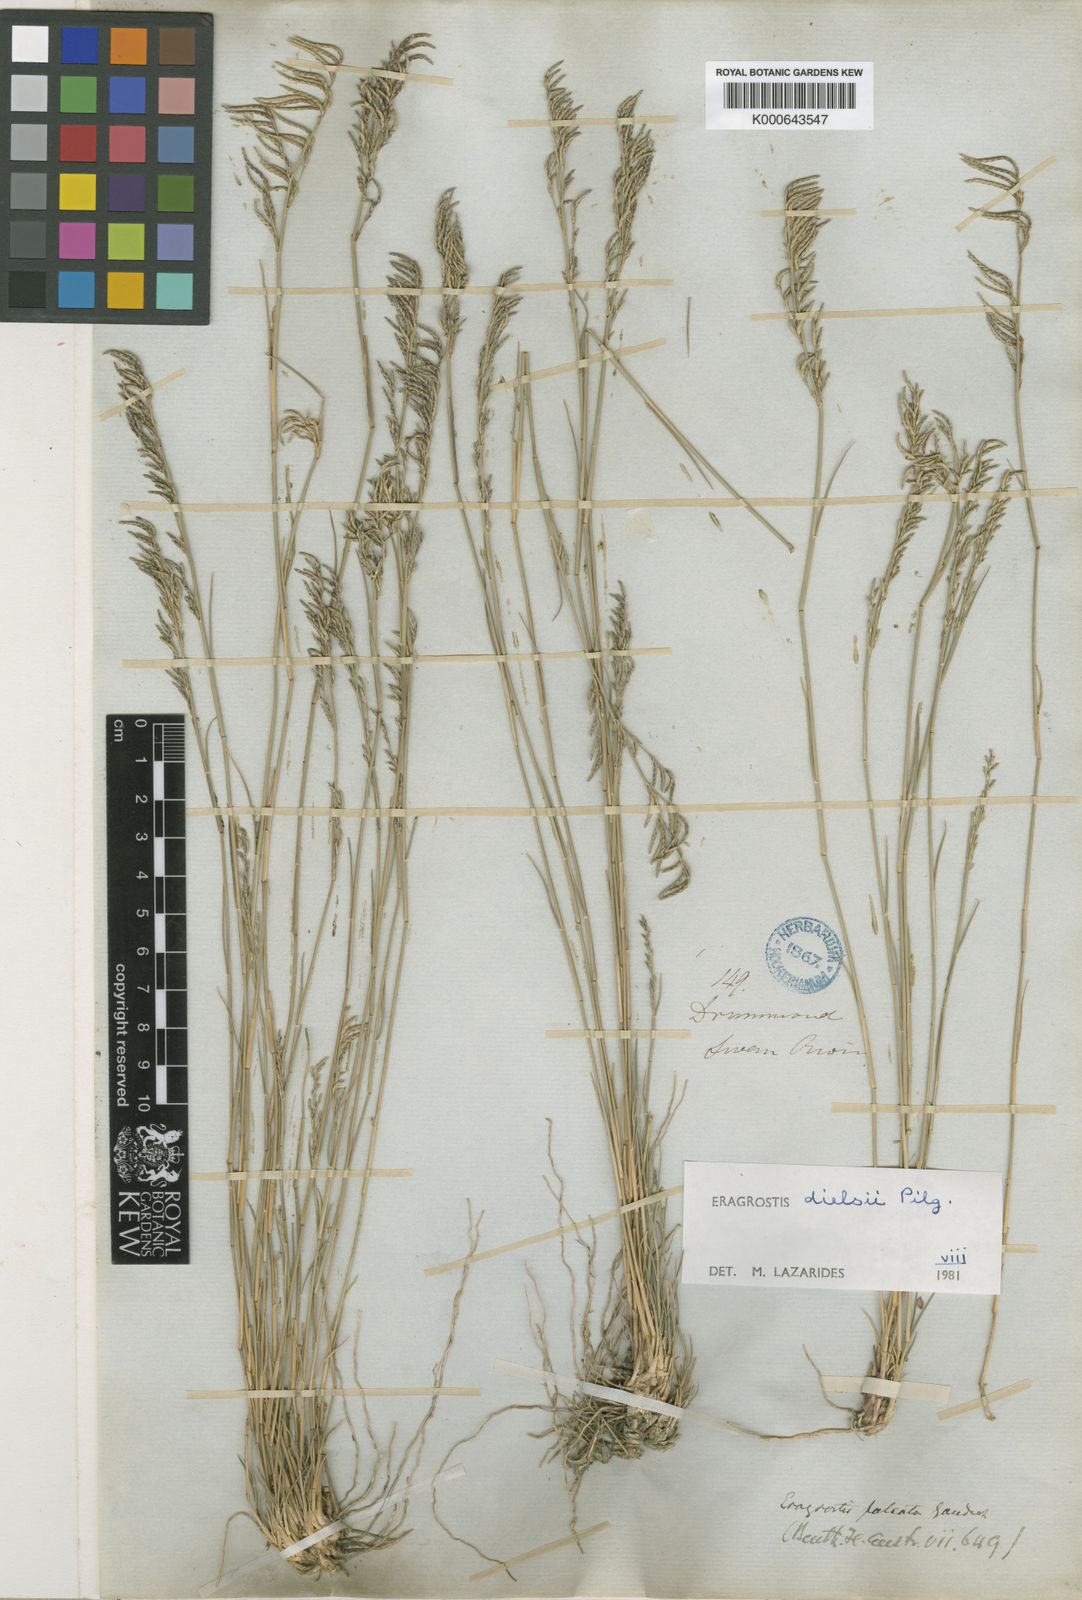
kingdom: Plantae
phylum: Tracheophyta
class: Liliopsida
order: Poales
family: Poaceae
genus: Eragrostis
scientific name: Eragrostis
